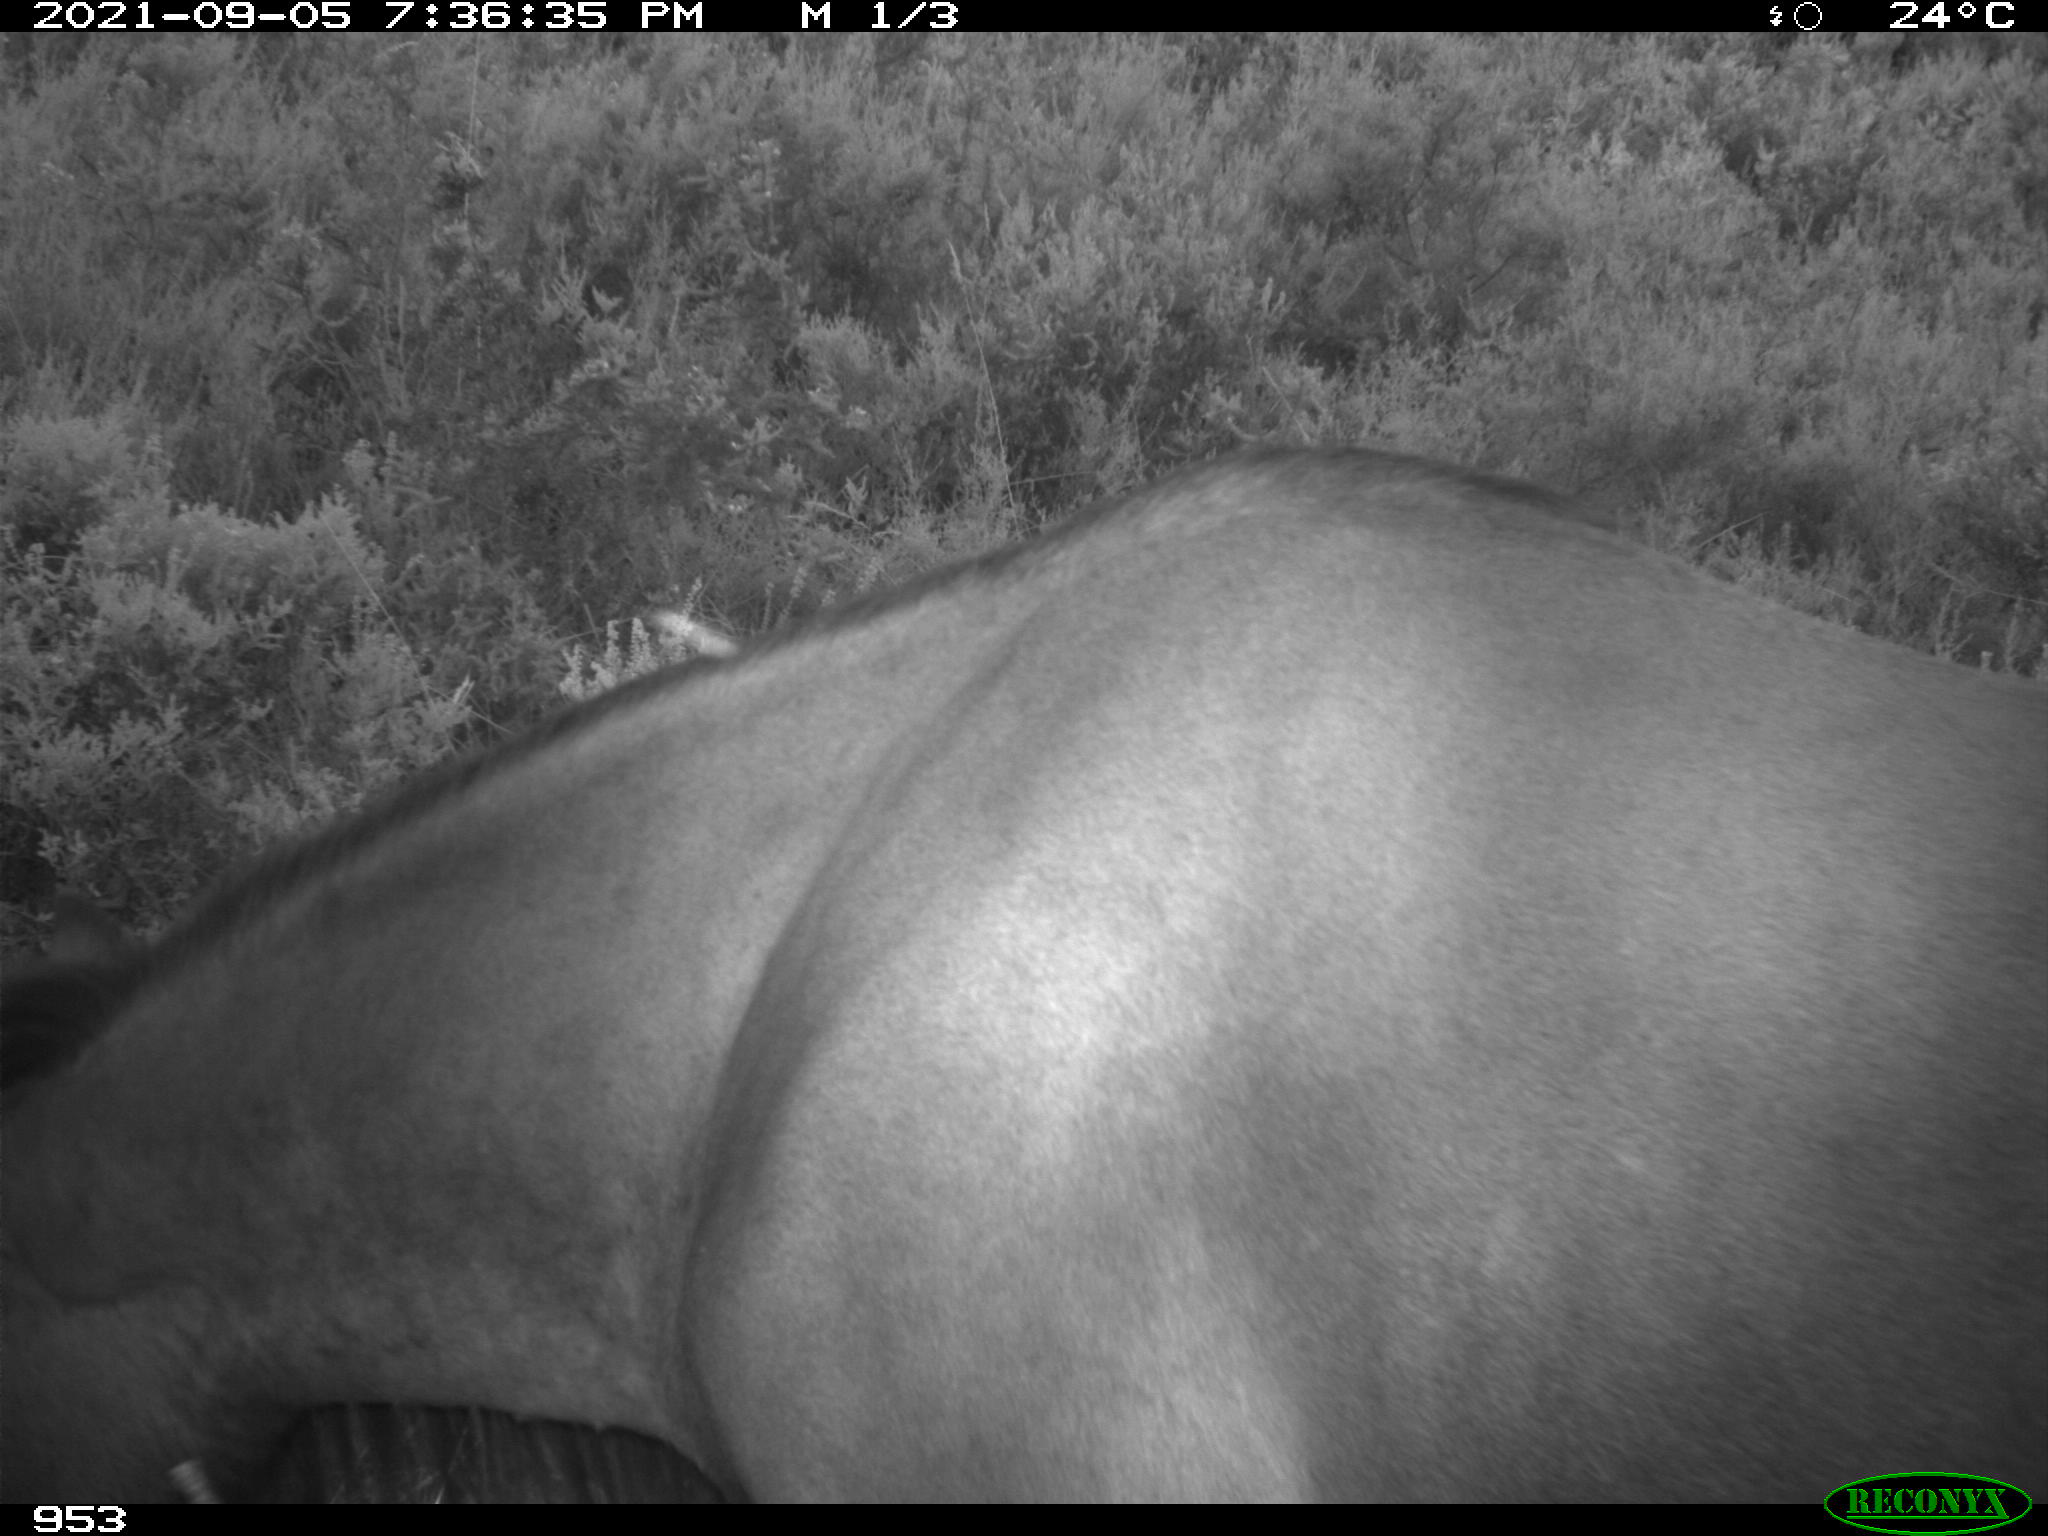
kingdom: Animalia
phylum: Chordata
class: Mammalia
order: Perissodactyla
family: Equidae
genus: Equus
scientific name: Equus caballus
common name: Horse
